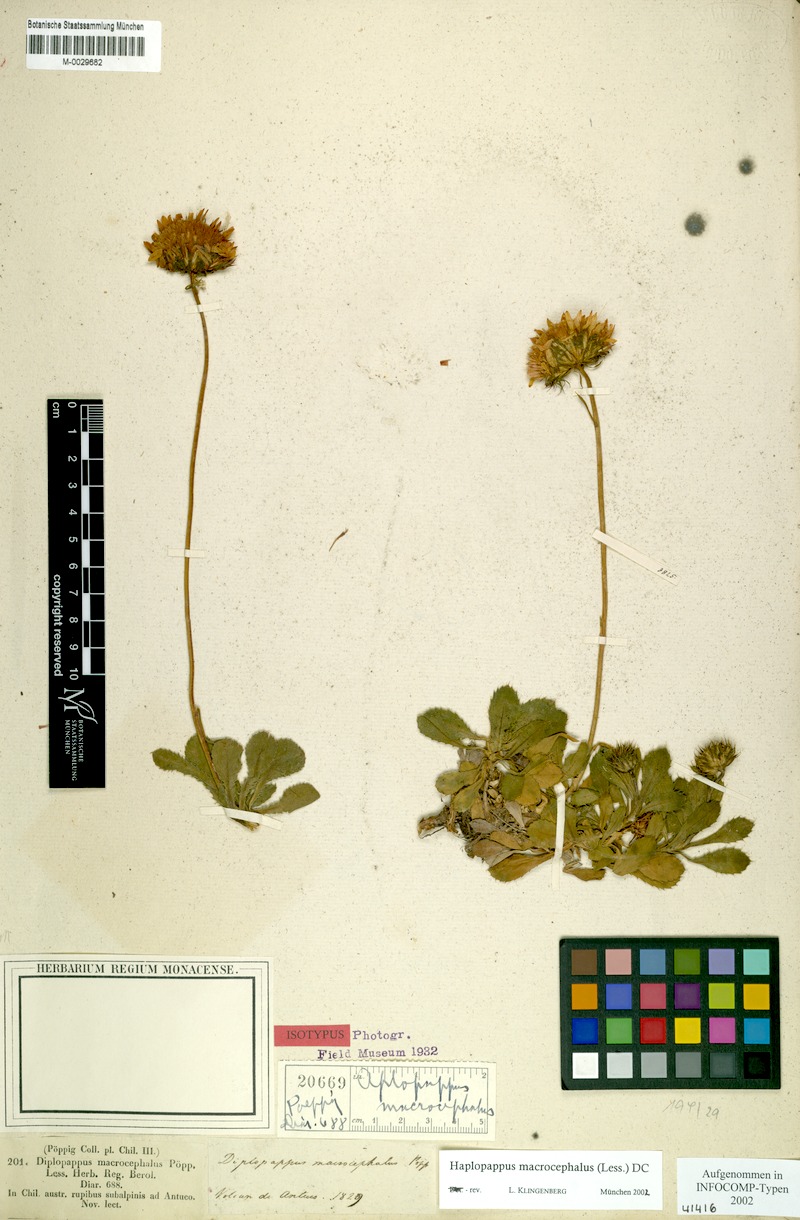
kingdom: Plantae
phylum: Tracheophyta
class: Magnoliopsida
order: Asterales
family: Asteraceae
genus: Haplopappus
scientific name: Haplopappus macrocephalus
